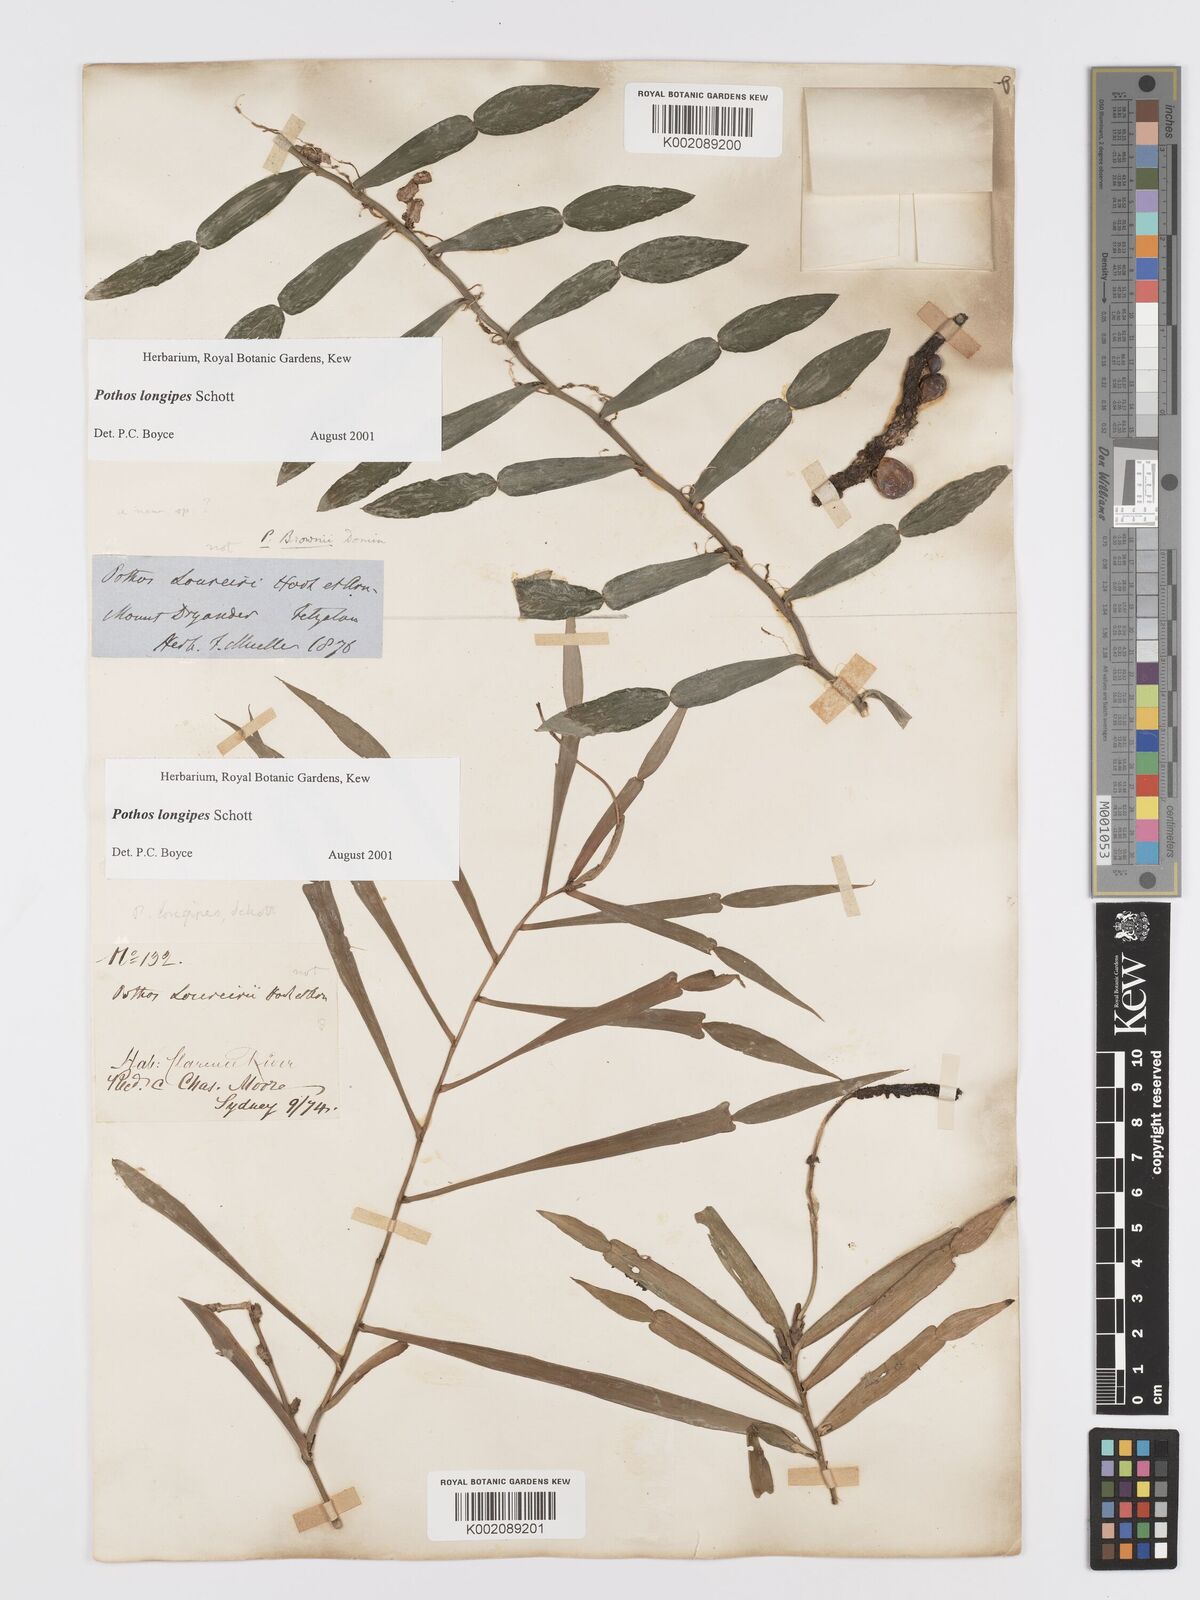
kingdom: Plantae
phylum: Tracheophyta
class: Liliopsida
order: Alismatales
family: Araceae
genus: Pothos
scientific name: Pothos longipes
